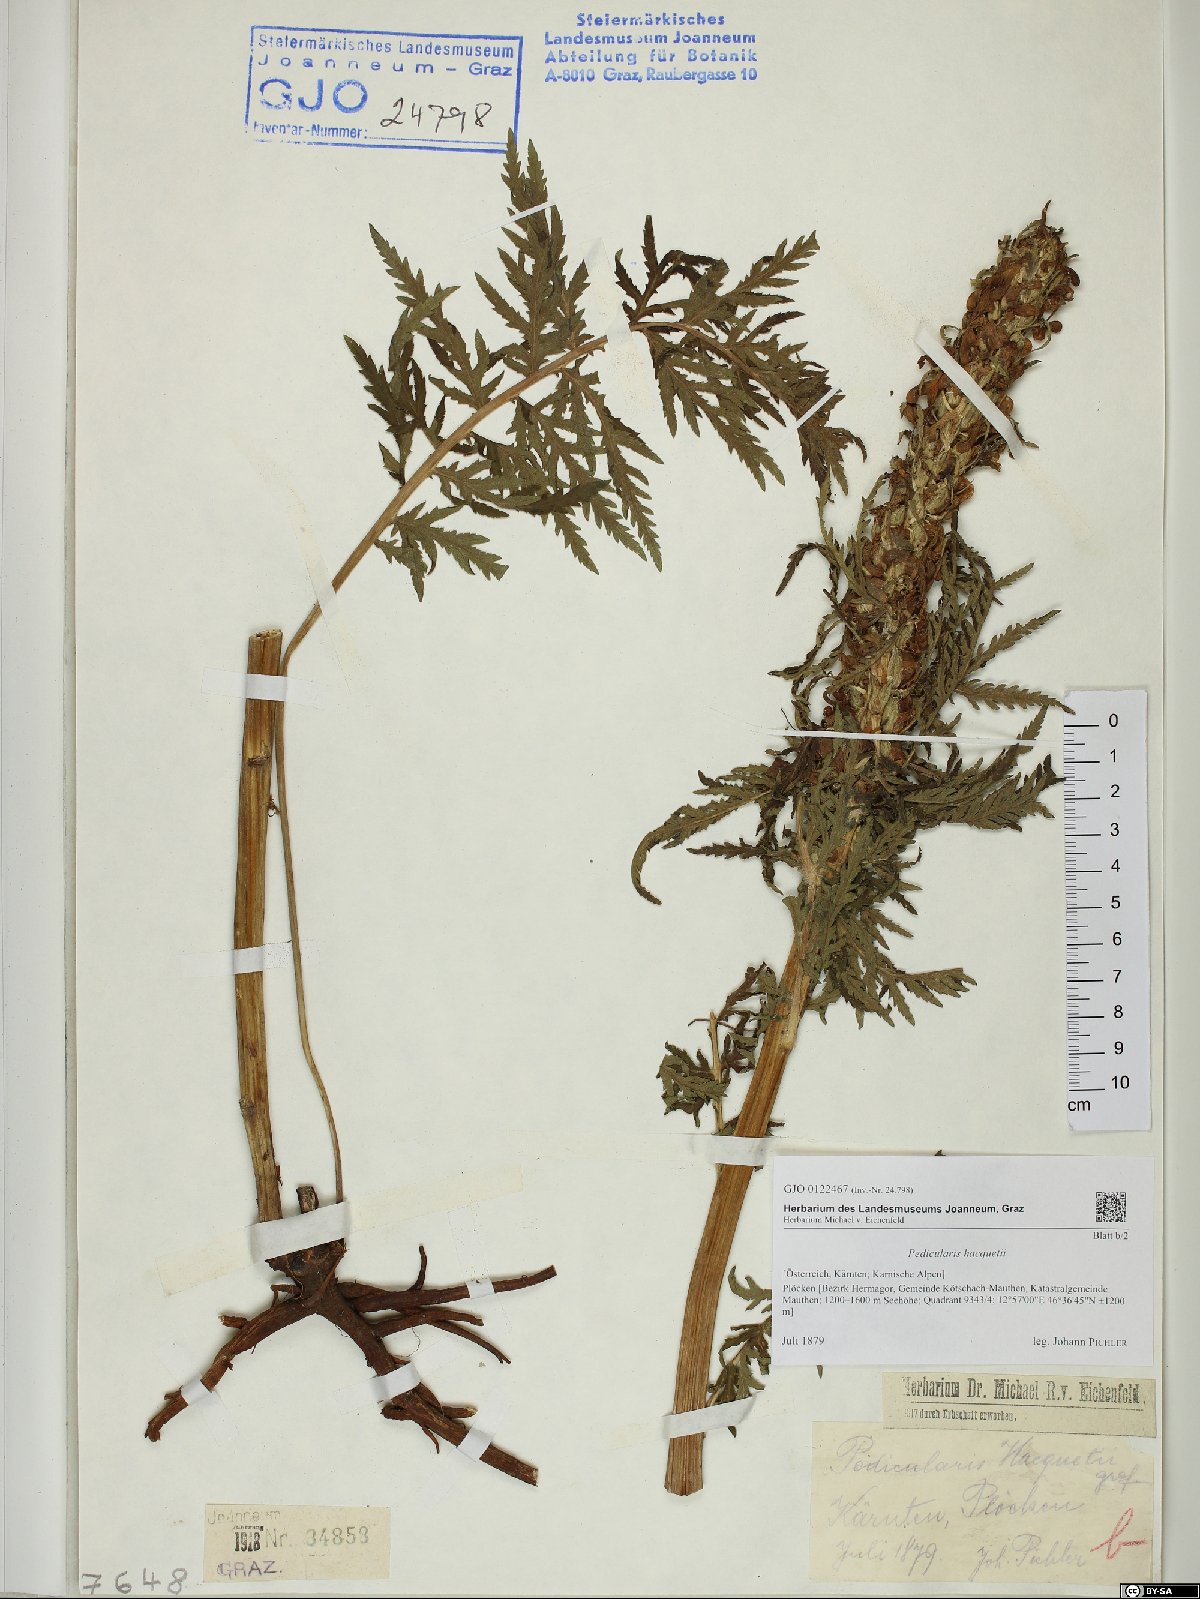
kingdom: Plantae
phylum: Tracheophyta
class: Magnoliopsida
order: Lamiales
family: Orobanchaceae
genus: Pedicularis
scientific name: Pedicularis hacquetii
